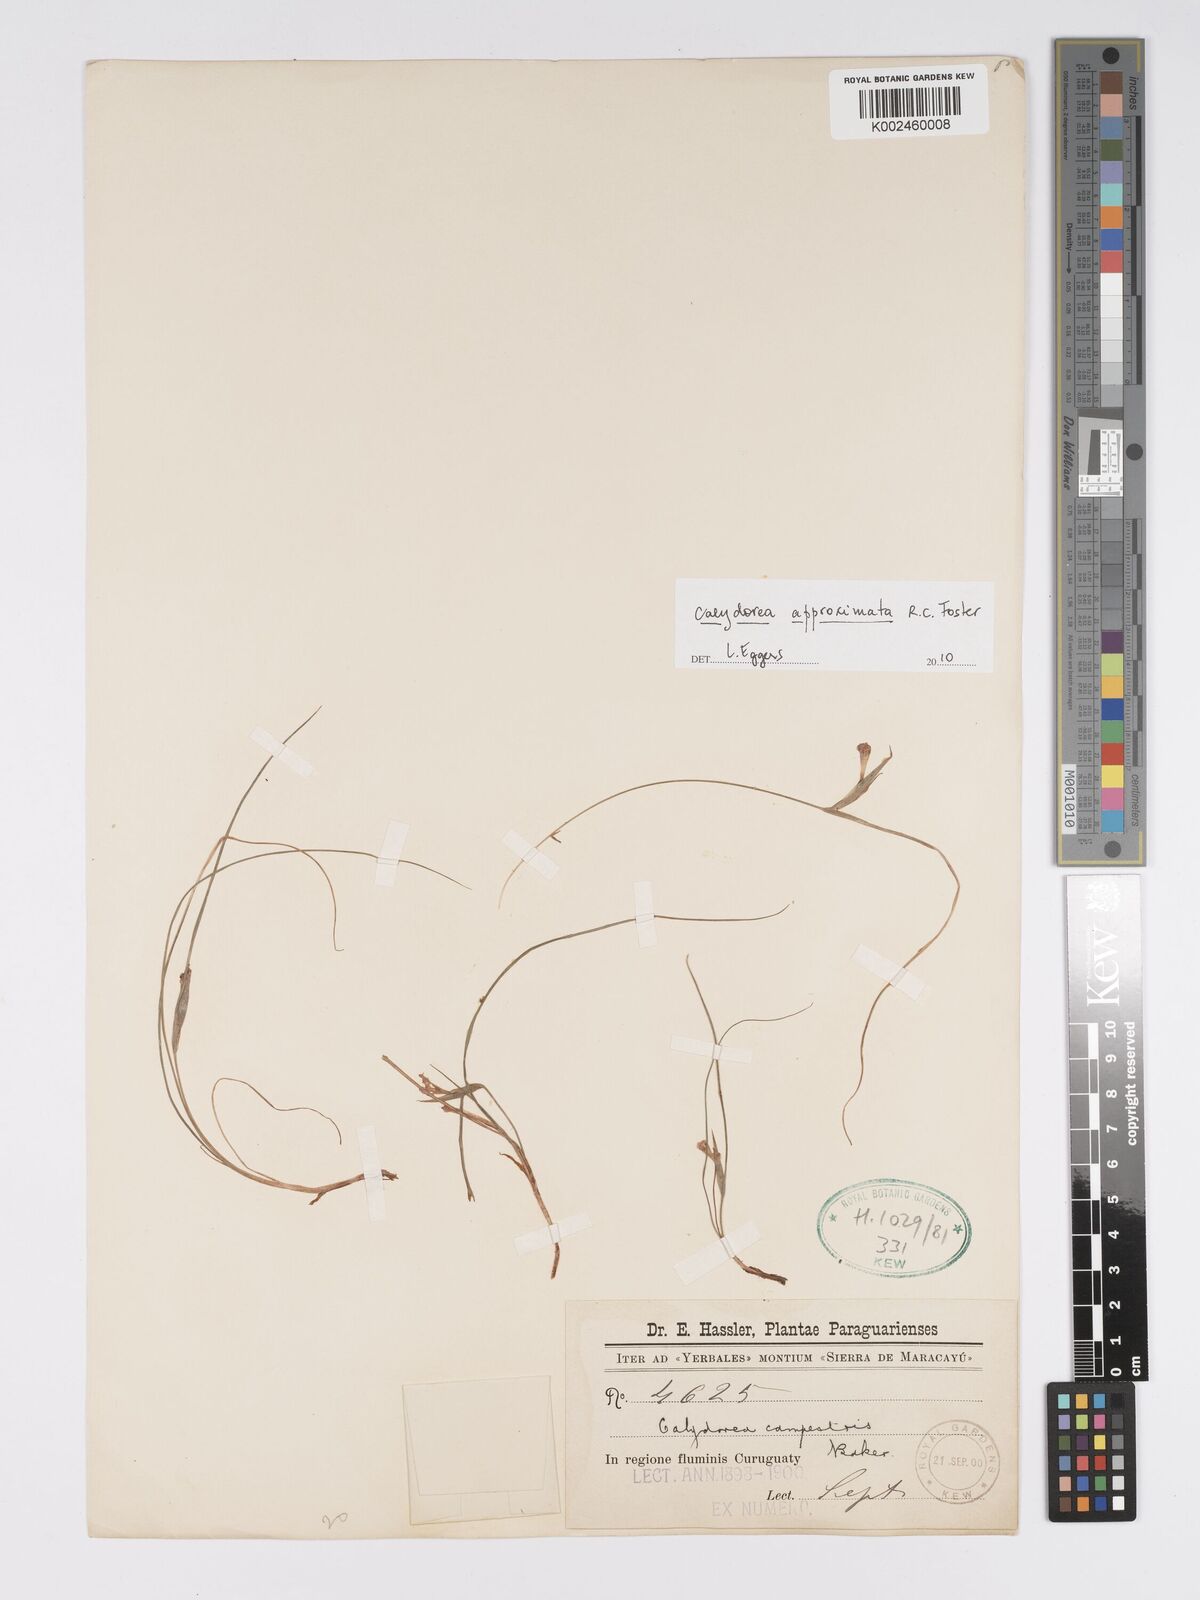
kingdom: Plantae
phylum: Tracheophyta
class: Liliopsida
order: Asparagales
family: Iridaceae
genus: Calydorea
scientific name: Calydorea approximata
